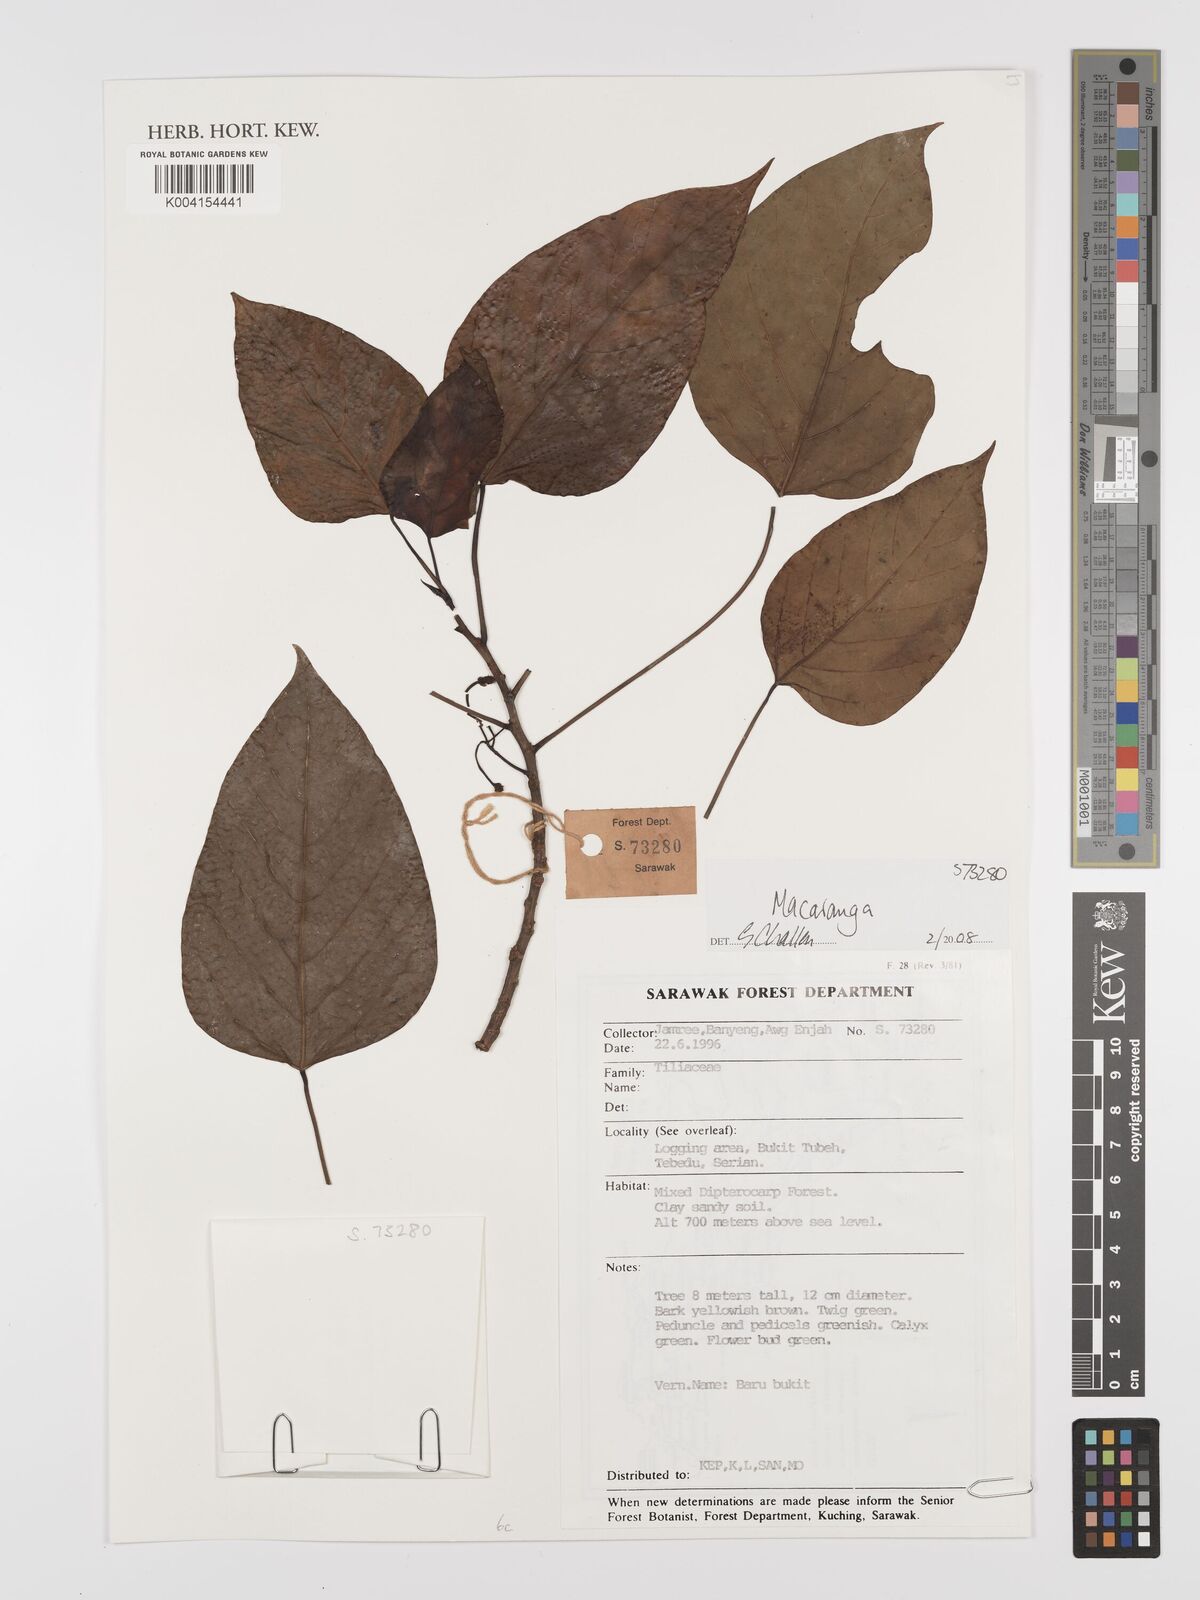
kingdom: Plantae
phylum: Tracheophyta
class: Magnoliopsida
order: Malpighiales
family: Euphorbiaceae
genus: Macaranga
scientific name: Macaranga
